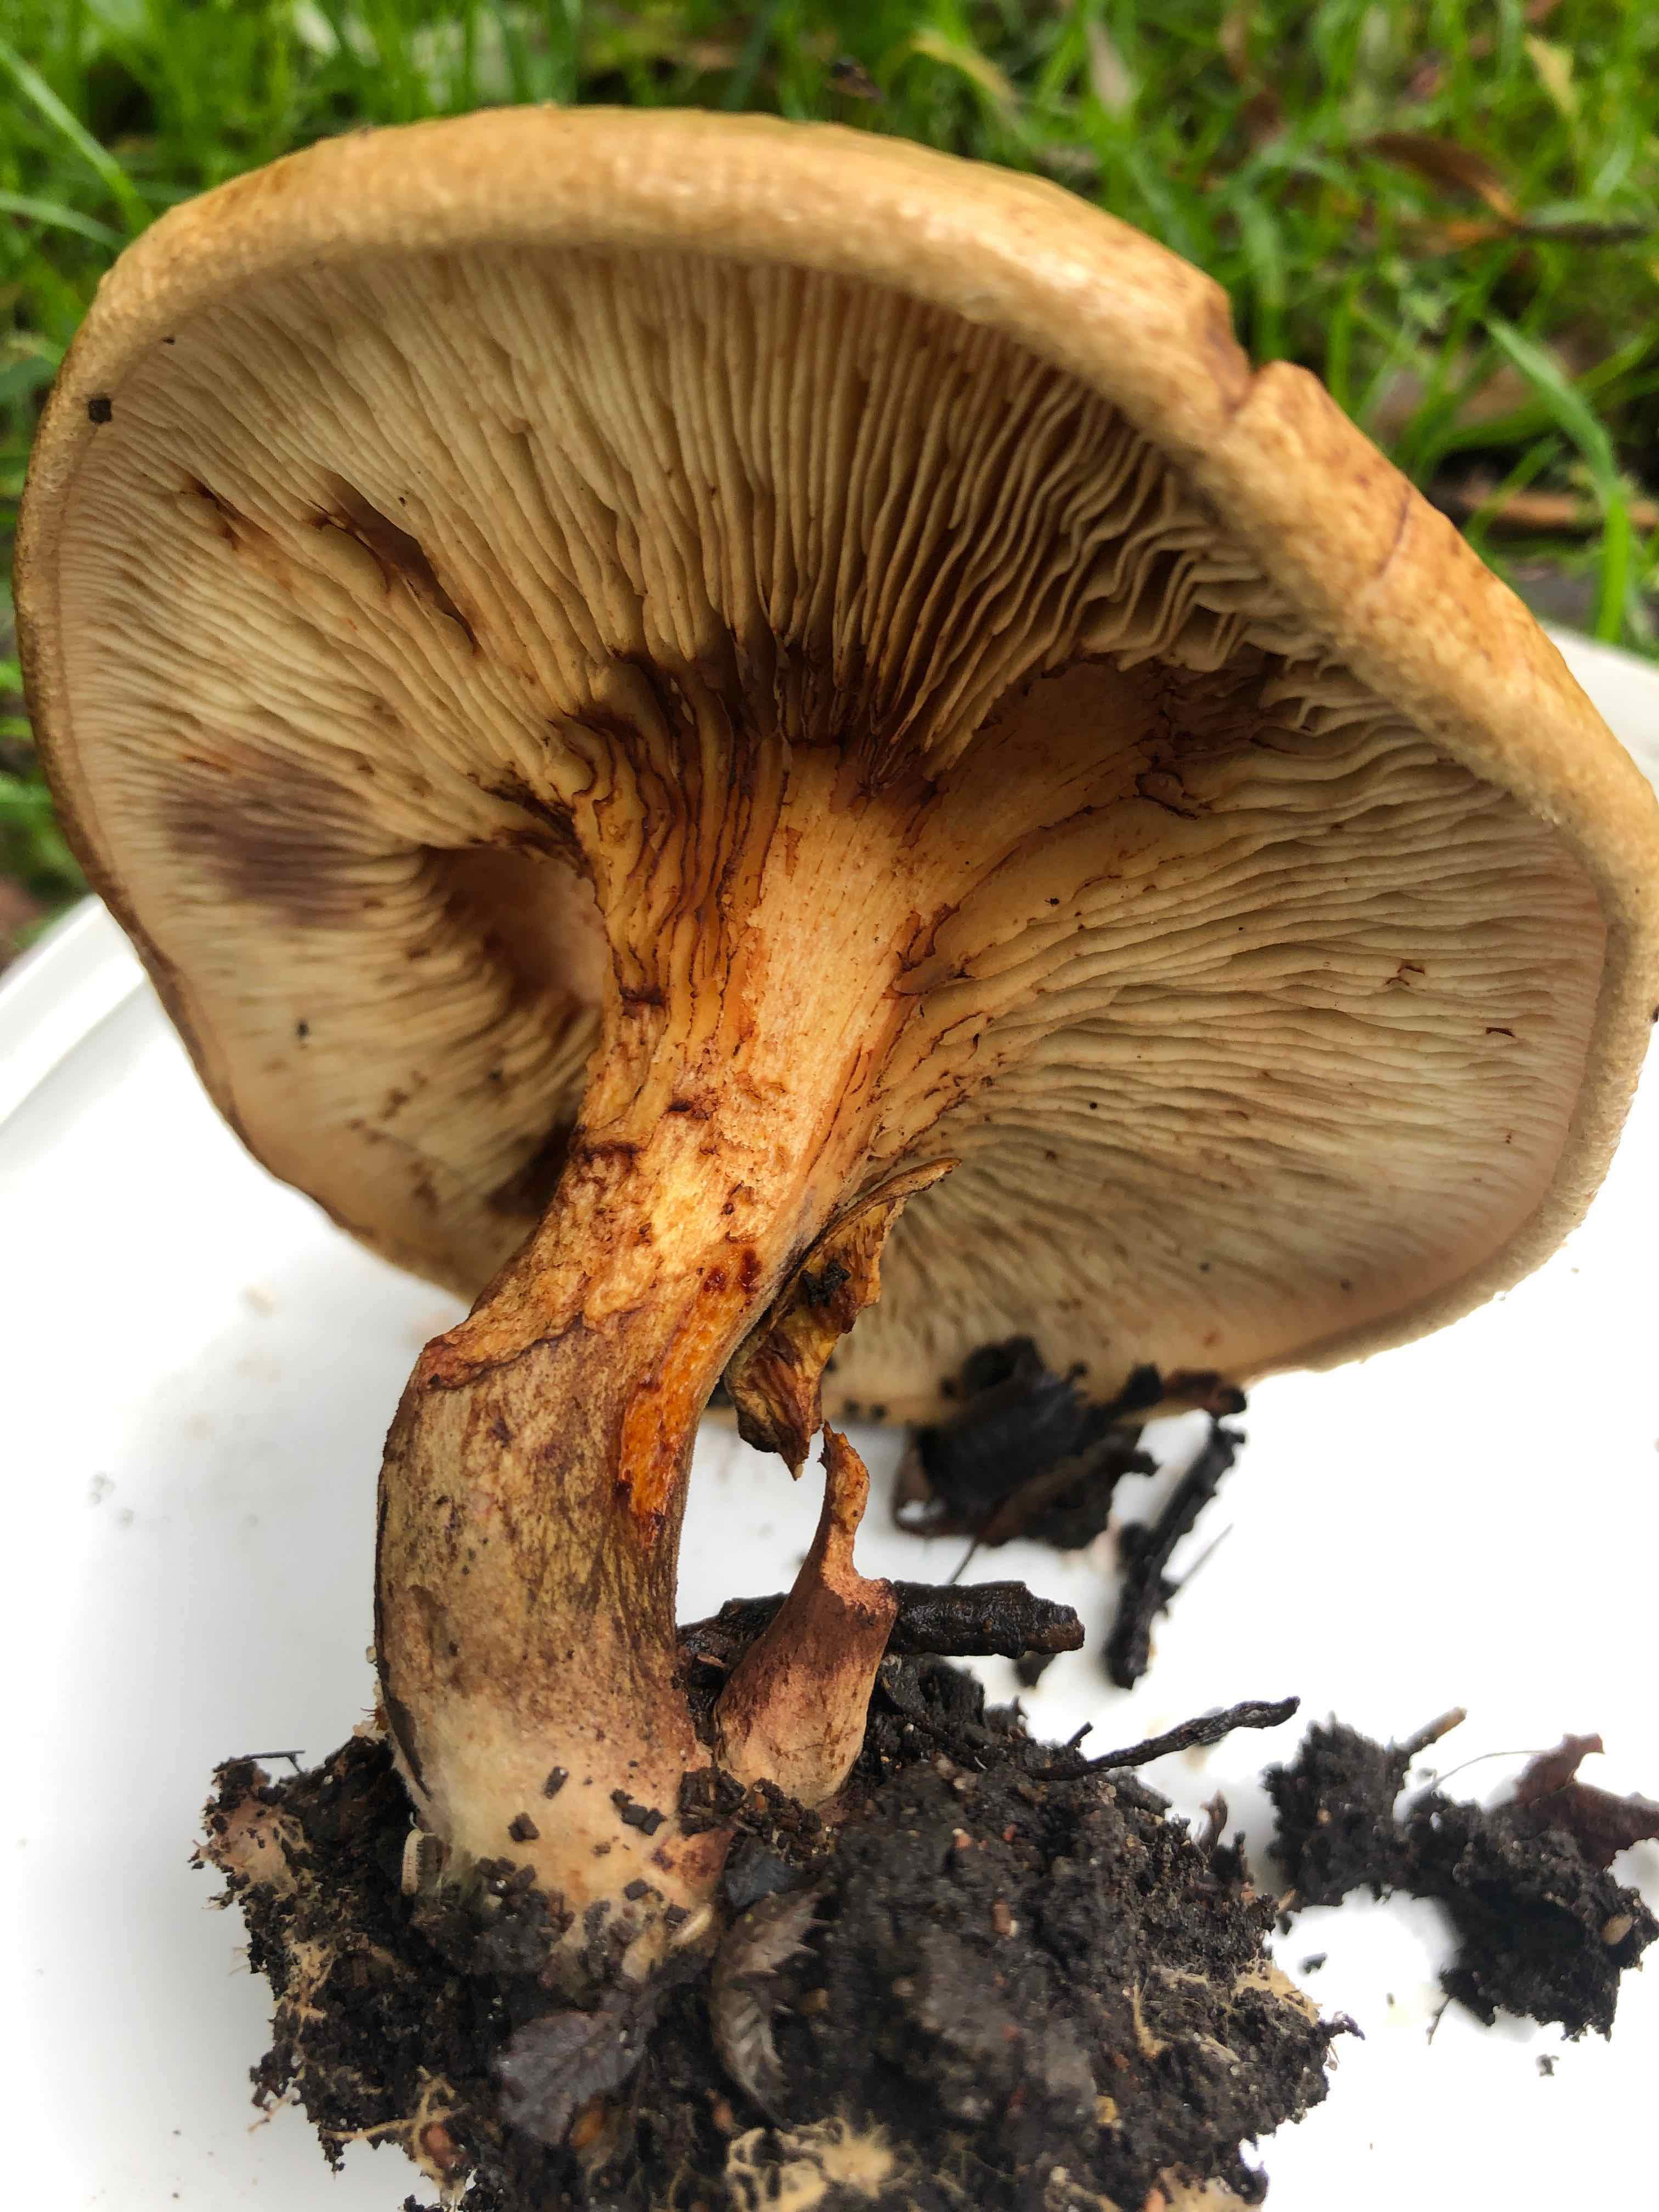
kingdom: Fungi
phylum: Basidiomycota
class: Agaricomycetes
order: Boletales
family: Paxillaceae
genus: Paxillus
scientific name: Paxillus involutus
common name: almindelig netbladhat
